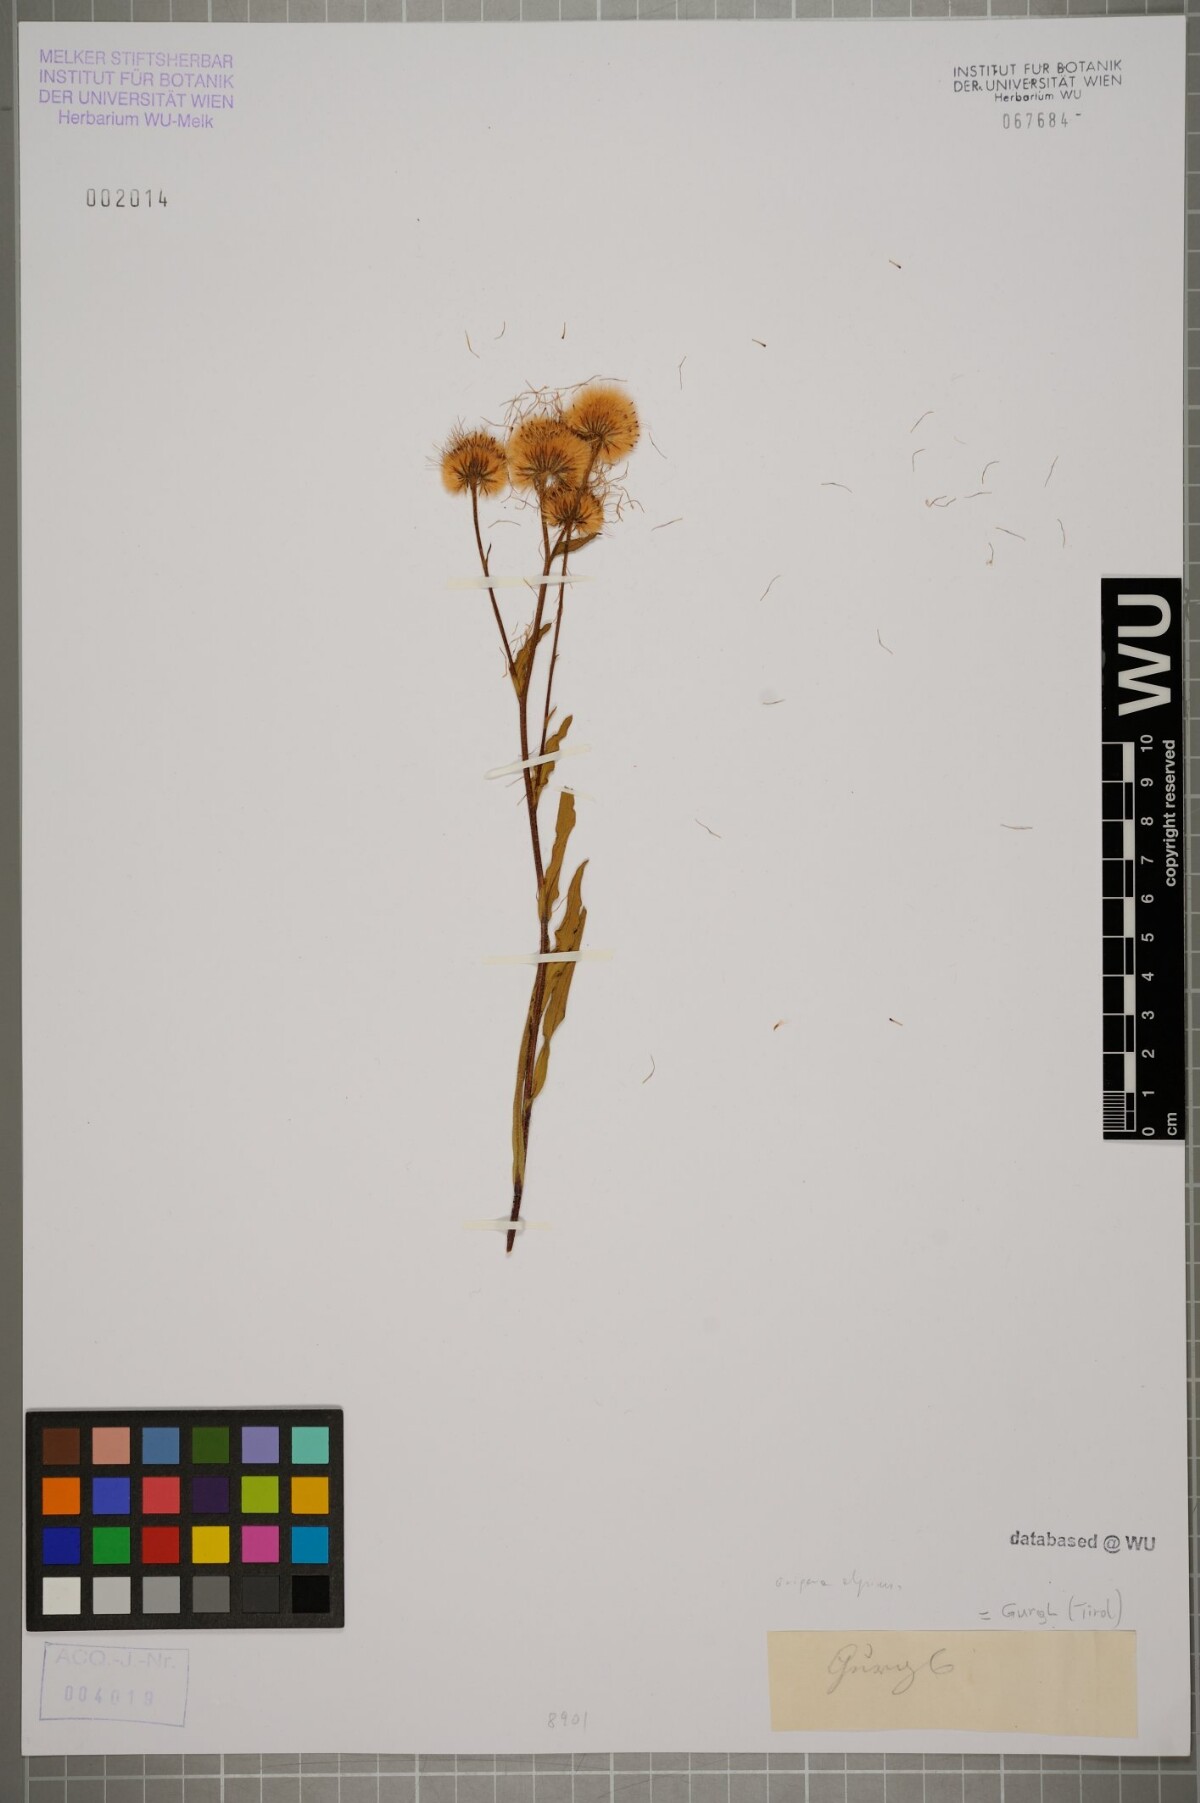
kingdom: Plantae
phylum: Tracheophyta
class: Magnoliopsida
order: Asterales
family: Asteraceae
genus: Erigeron
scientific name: Erigeron alpinus
